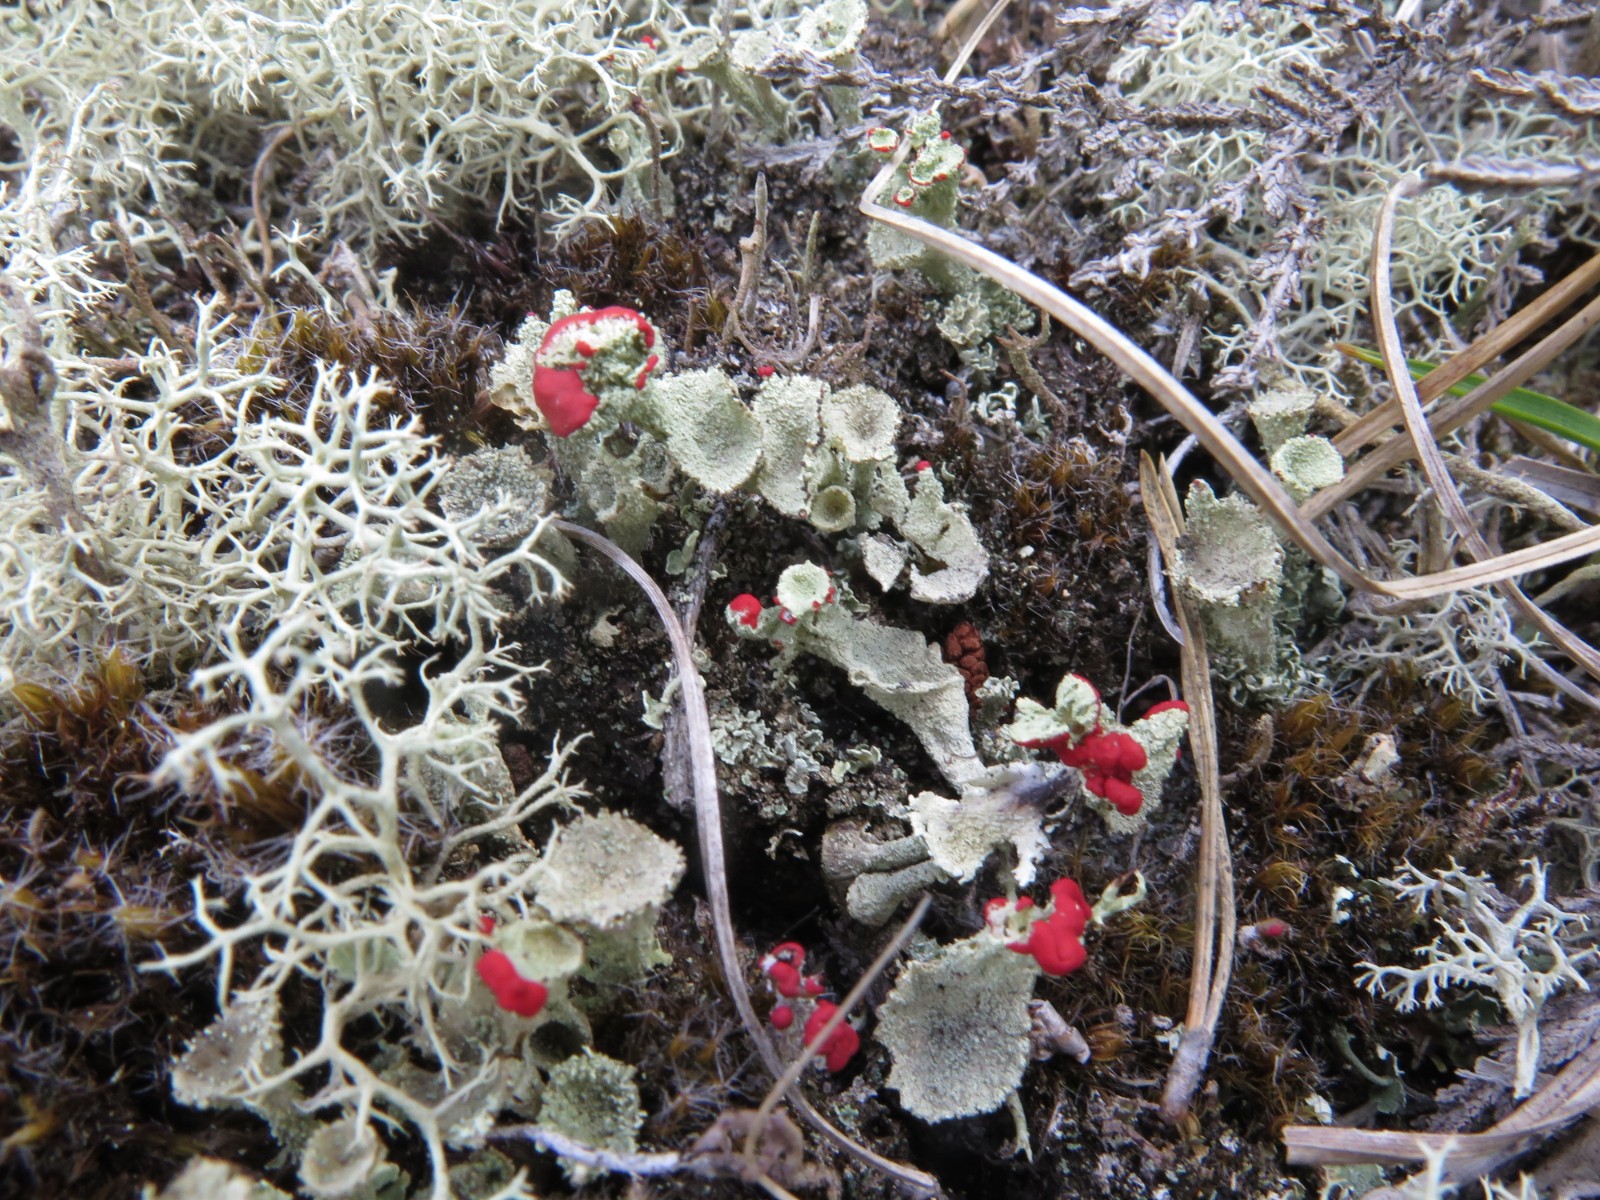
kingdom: Fungi
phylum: Ascomycota
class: Lecanoromycetes
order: Lecanorales
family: Cladoniaceae
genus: Cladonia
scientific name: Cladonia diversa
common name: rød bægerlav
